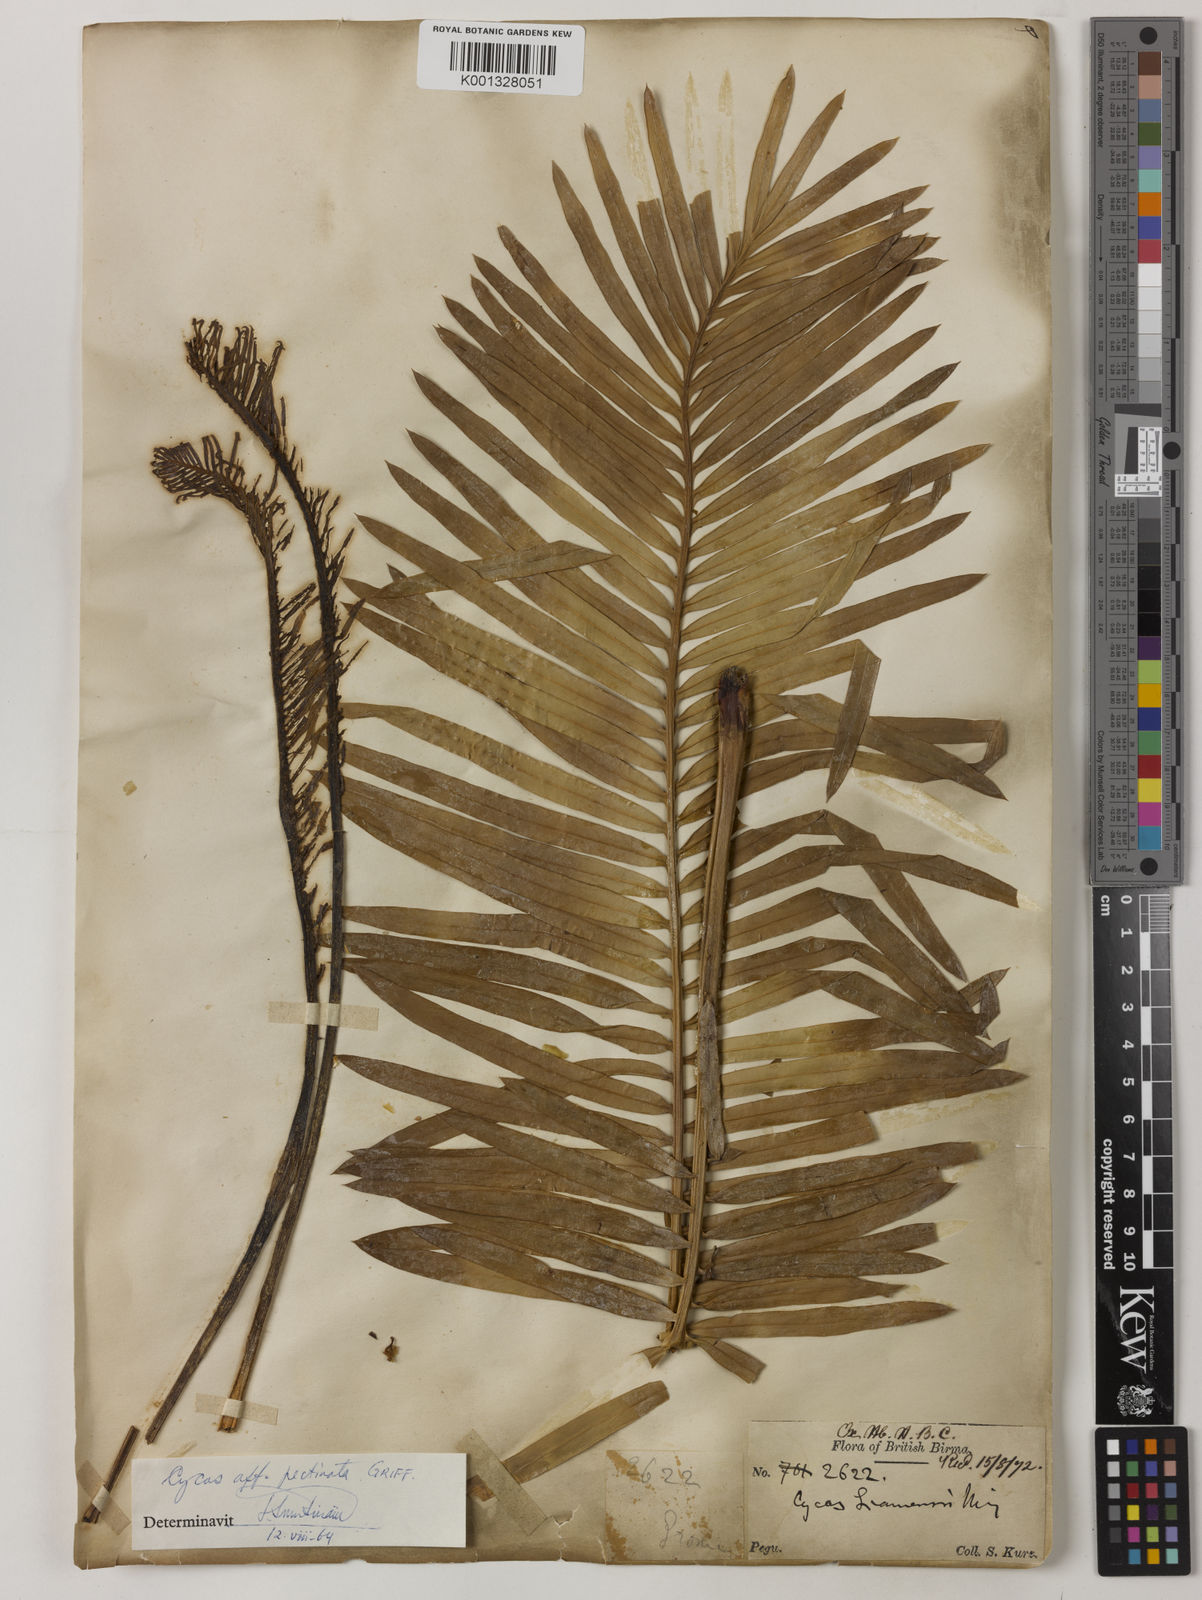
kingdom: Plantae
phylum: Tracheophyta
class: Cycadopsida
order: Cycadales
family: Cycadaceae
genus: Cycas
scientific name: Cycas siamensis
